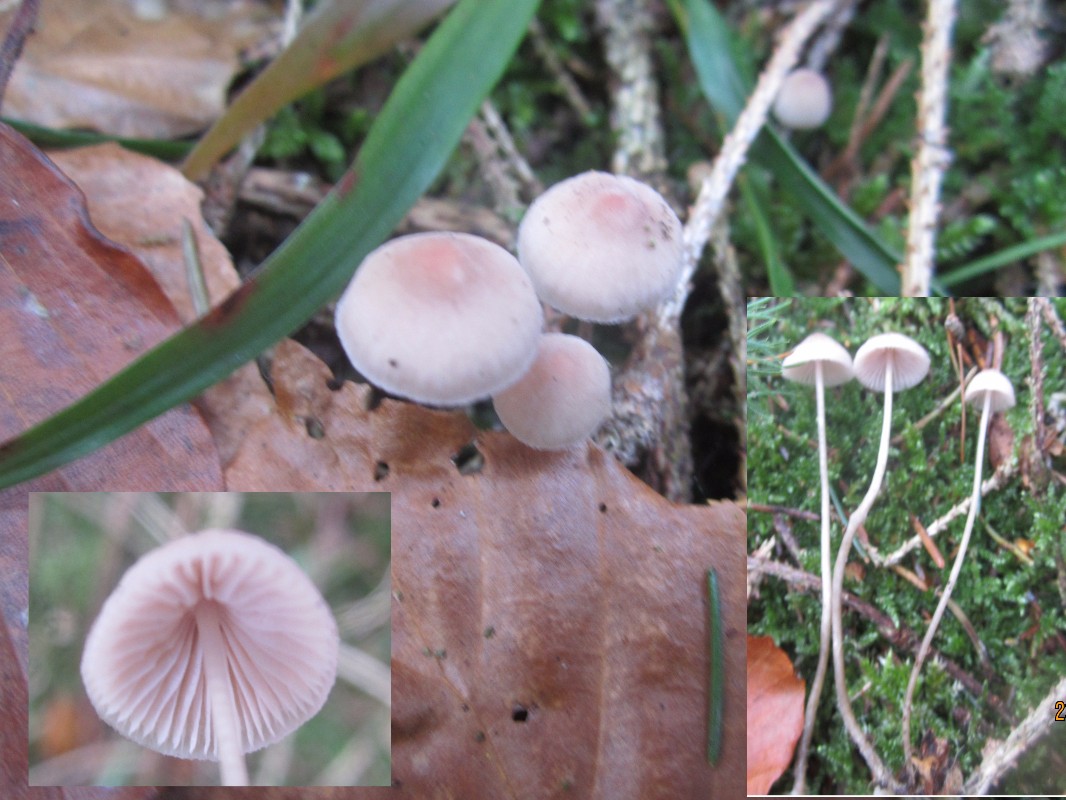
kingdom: Fungi
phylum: Basidiomycota
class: Agaricomycetes
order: Agaricales
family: Mycenaceae
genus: Mycena
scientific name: Mycena metata
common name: rødlig huesvamp
